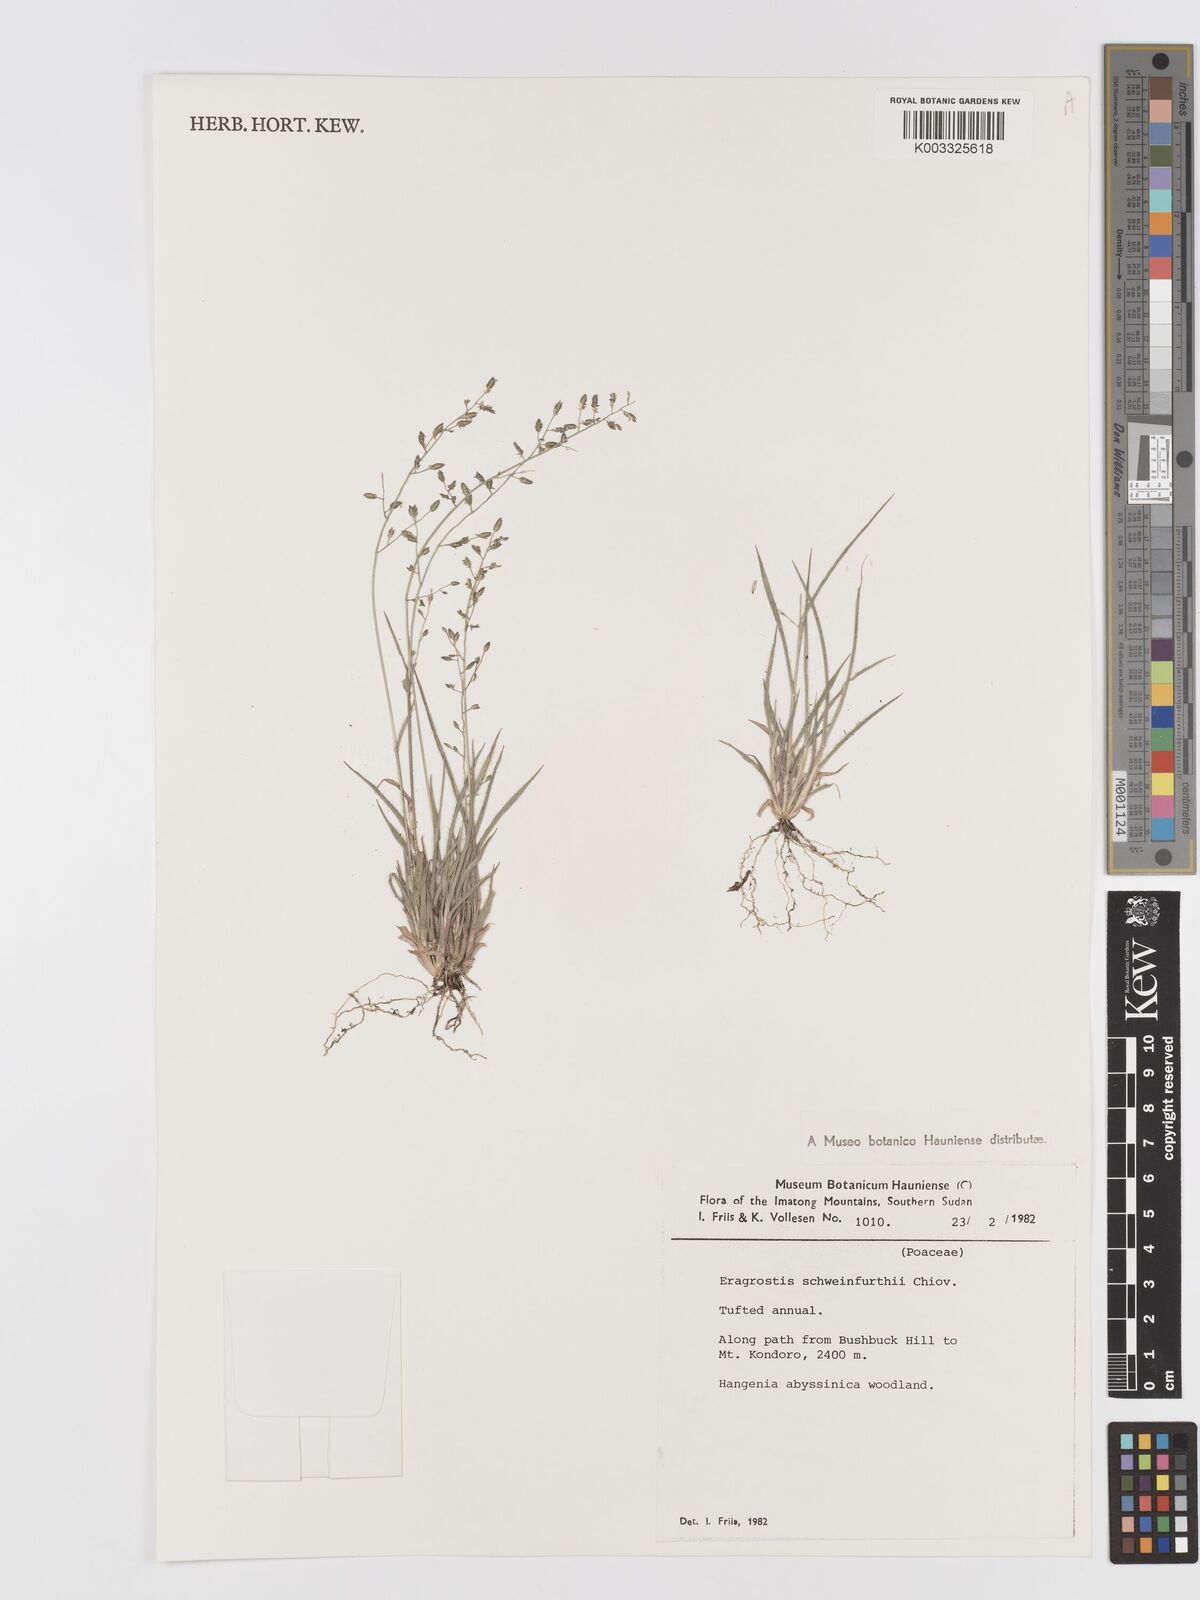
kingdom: Plantae
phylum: Tracheophyta
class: Liliopsida
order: Poales
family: Poaceae
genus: Eragrostis
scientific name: Eragrostis schweinfurthii
